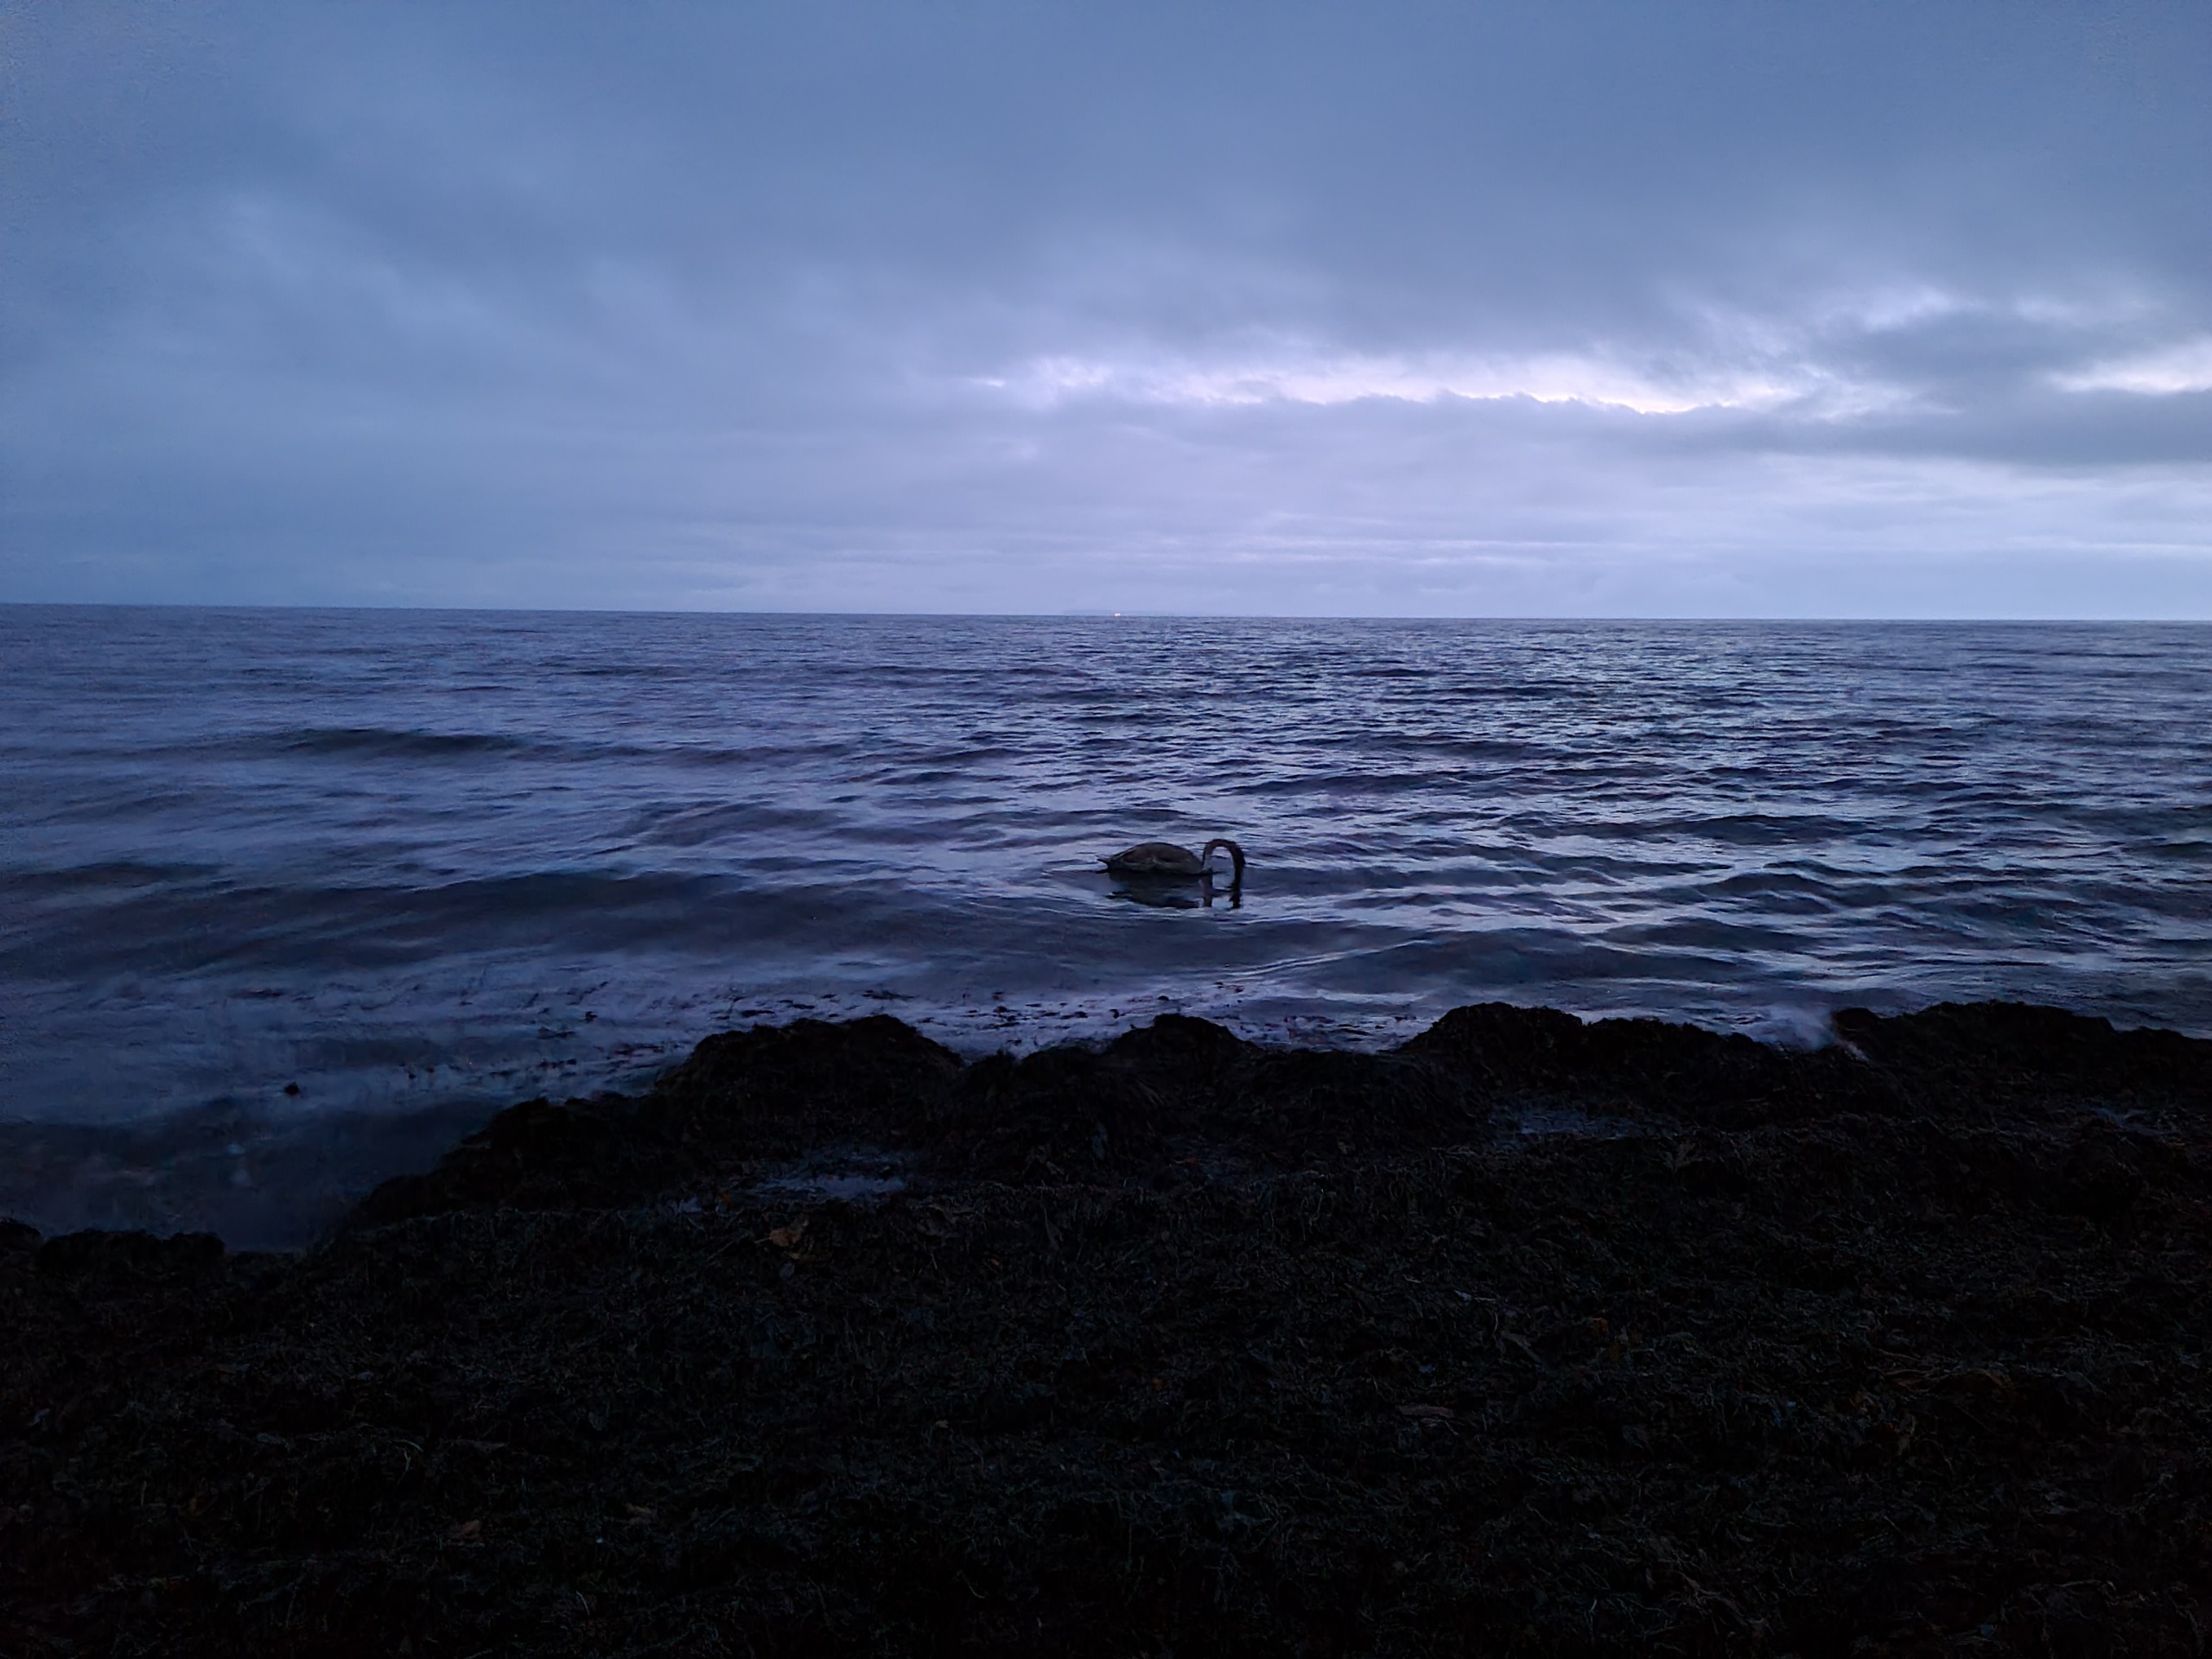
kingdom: Animalia
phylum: Chordata
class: Aves
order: Anseriformes
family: Anatidae
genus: Cygnus
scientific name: Cygnus olor
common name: Knopsvane
